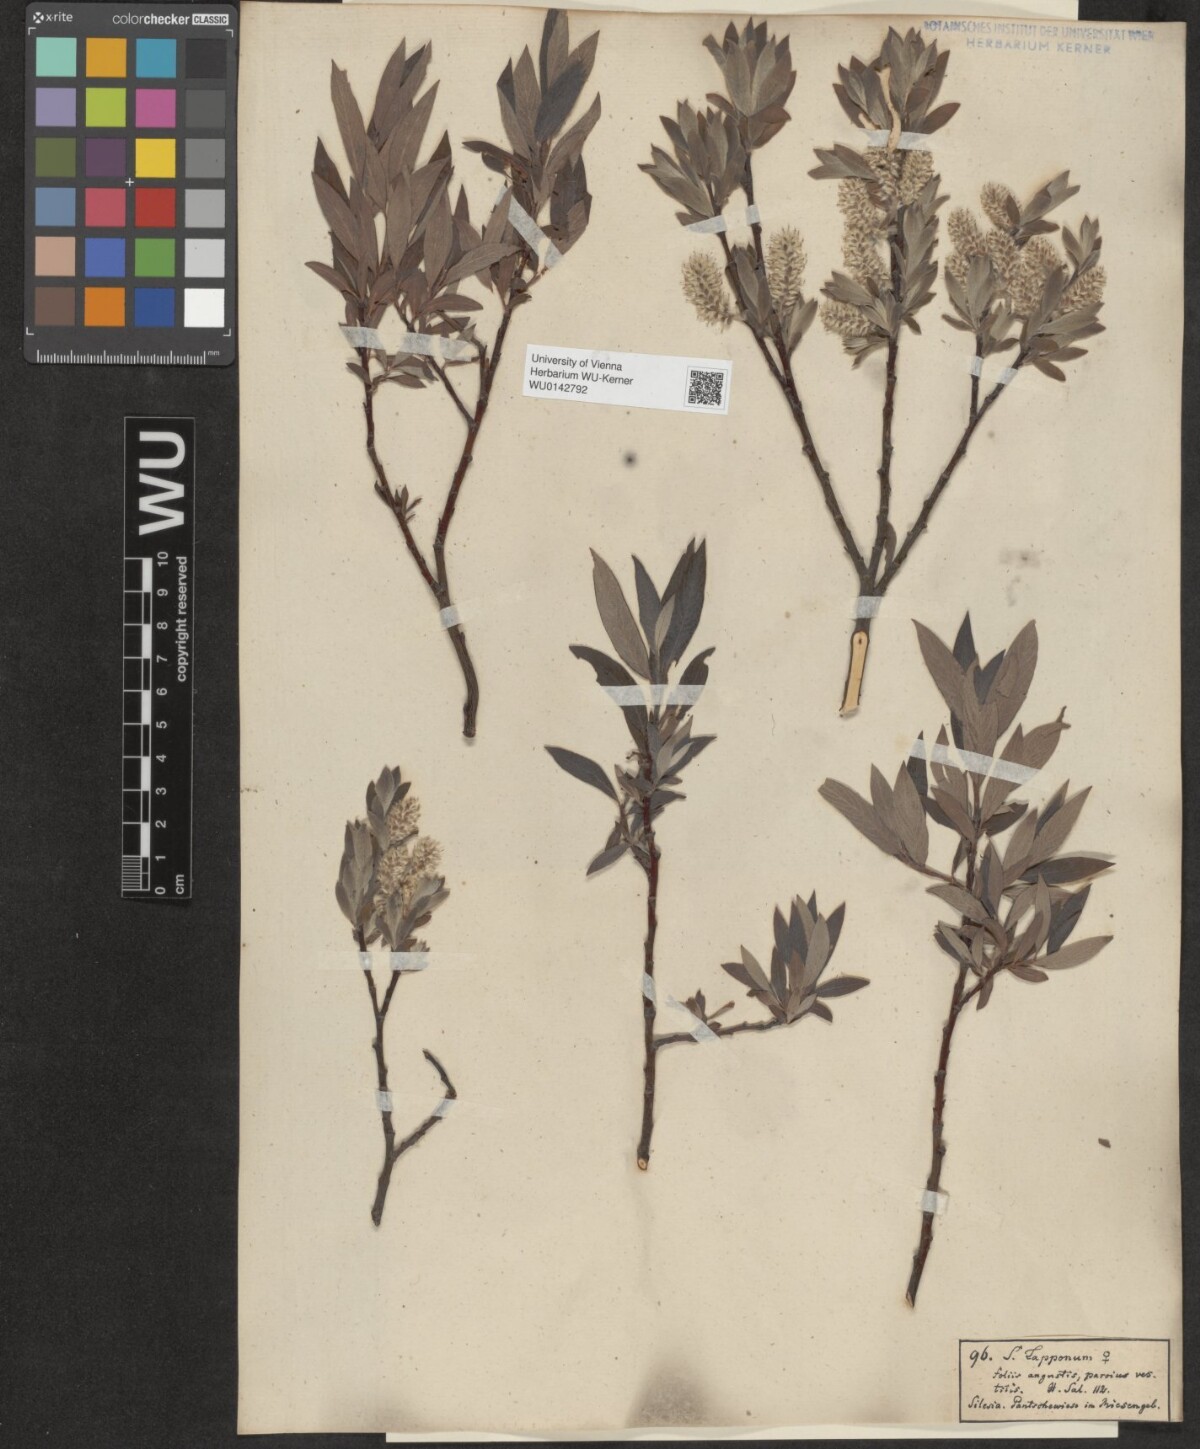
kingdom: Plantae
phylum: Tracheophyta
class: Magnoliopsida
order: Malpighiales
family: Salicaceae
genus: Salix
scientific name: Salix lapponum
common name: Downy willow
